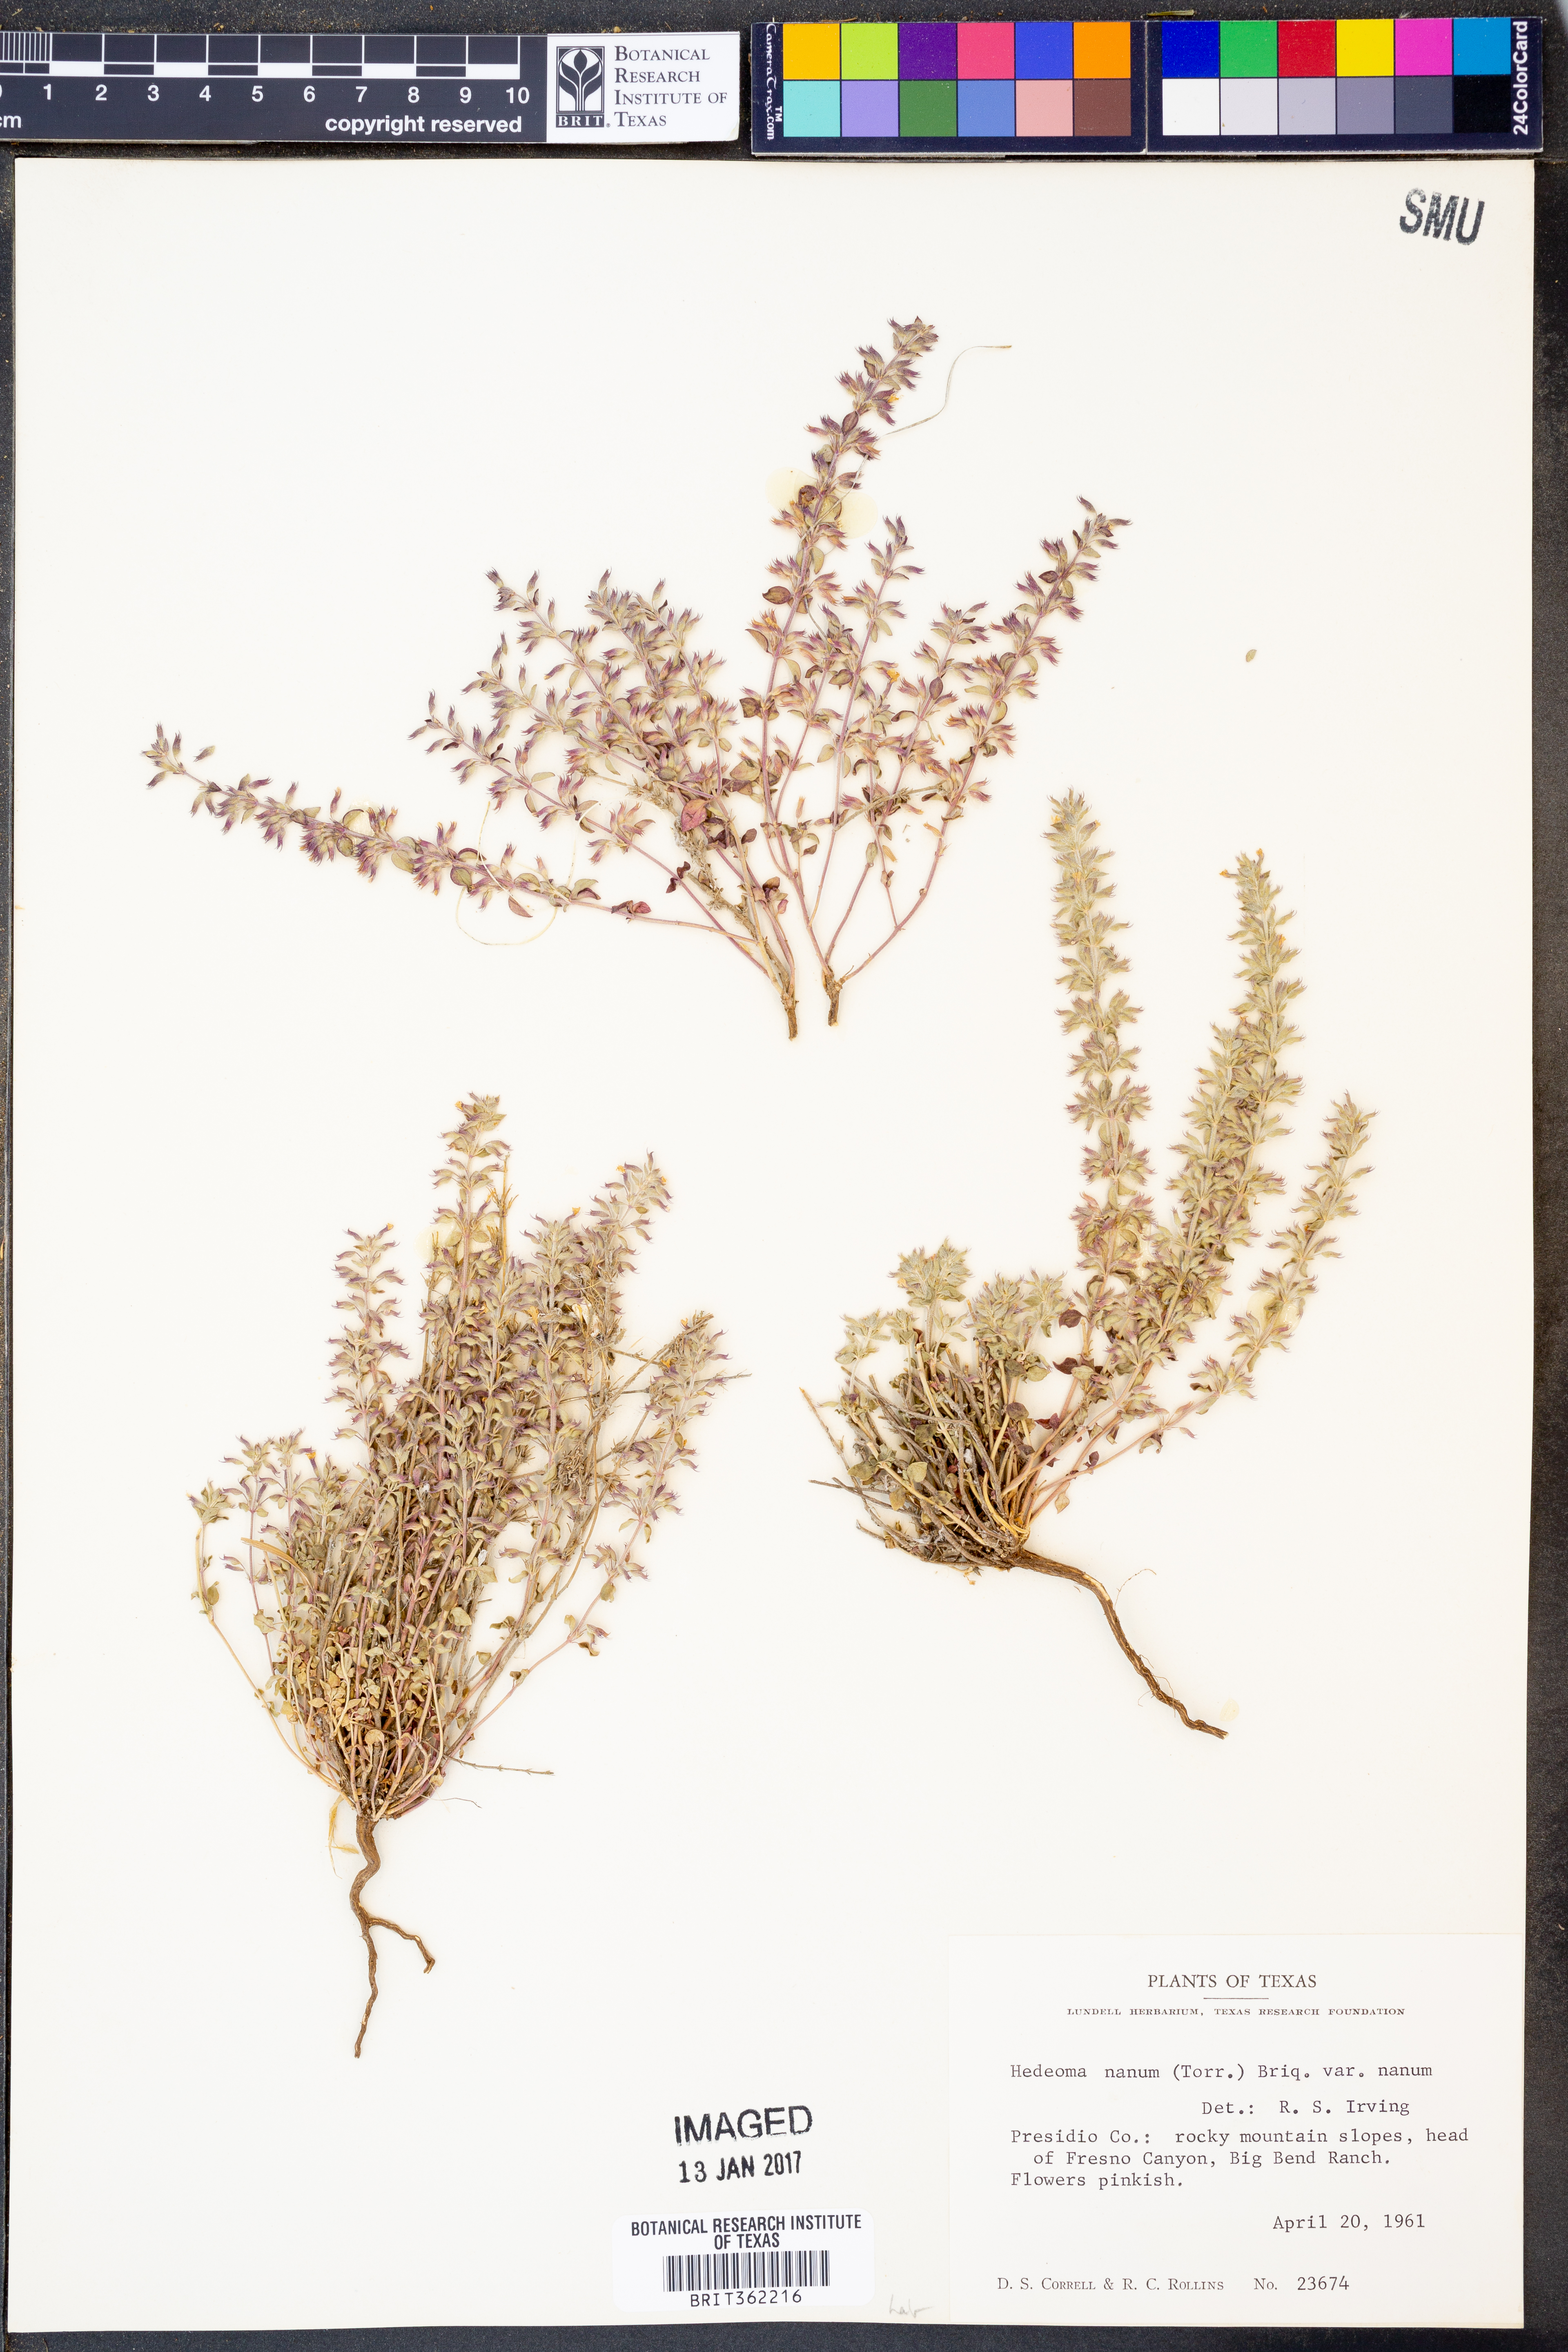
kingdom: Plantae
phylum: Tracheophyta
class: Magnoliopsida
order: Lamiales
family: Lamiaceae
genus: Hedeoma
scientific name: Hedeoma nana
